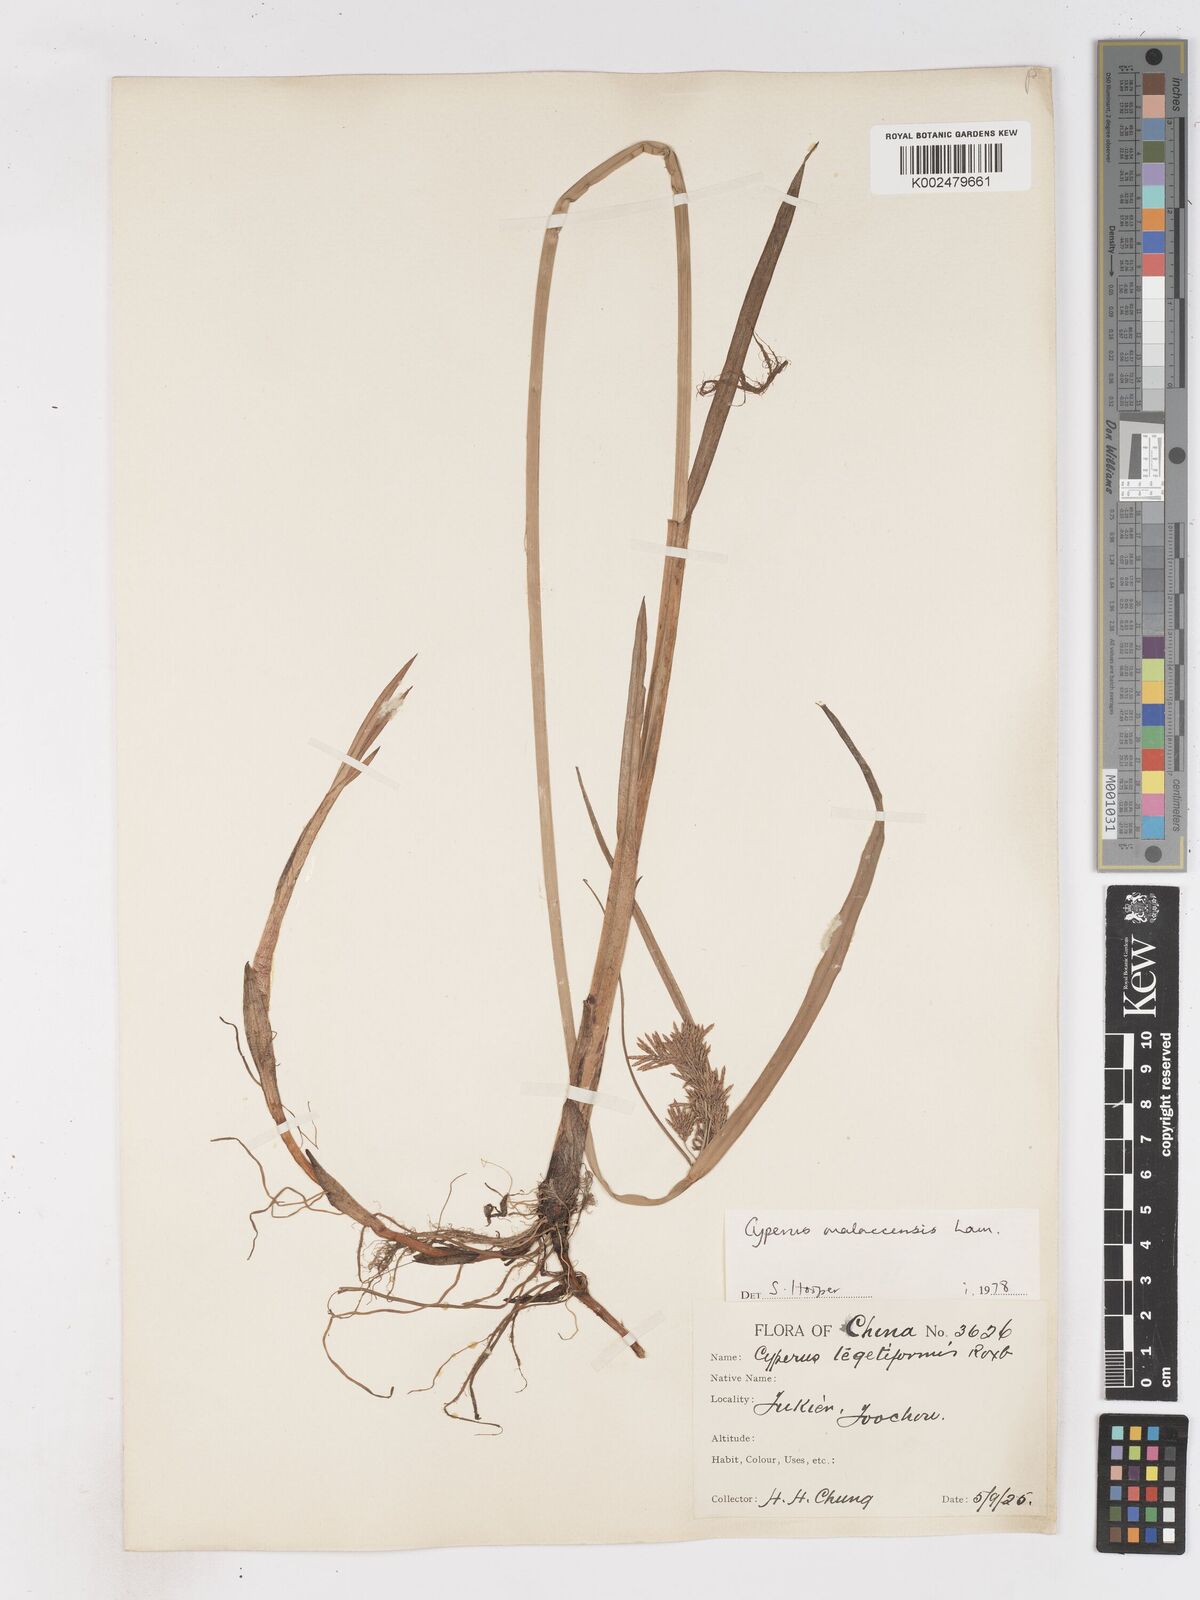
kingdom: Plantae
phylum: Tracheophyta
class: Liliopsida
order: Poales
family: Cyperaceae
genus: Cyperus
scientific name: Cyperus malaccensis
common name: Shichito matgrass
